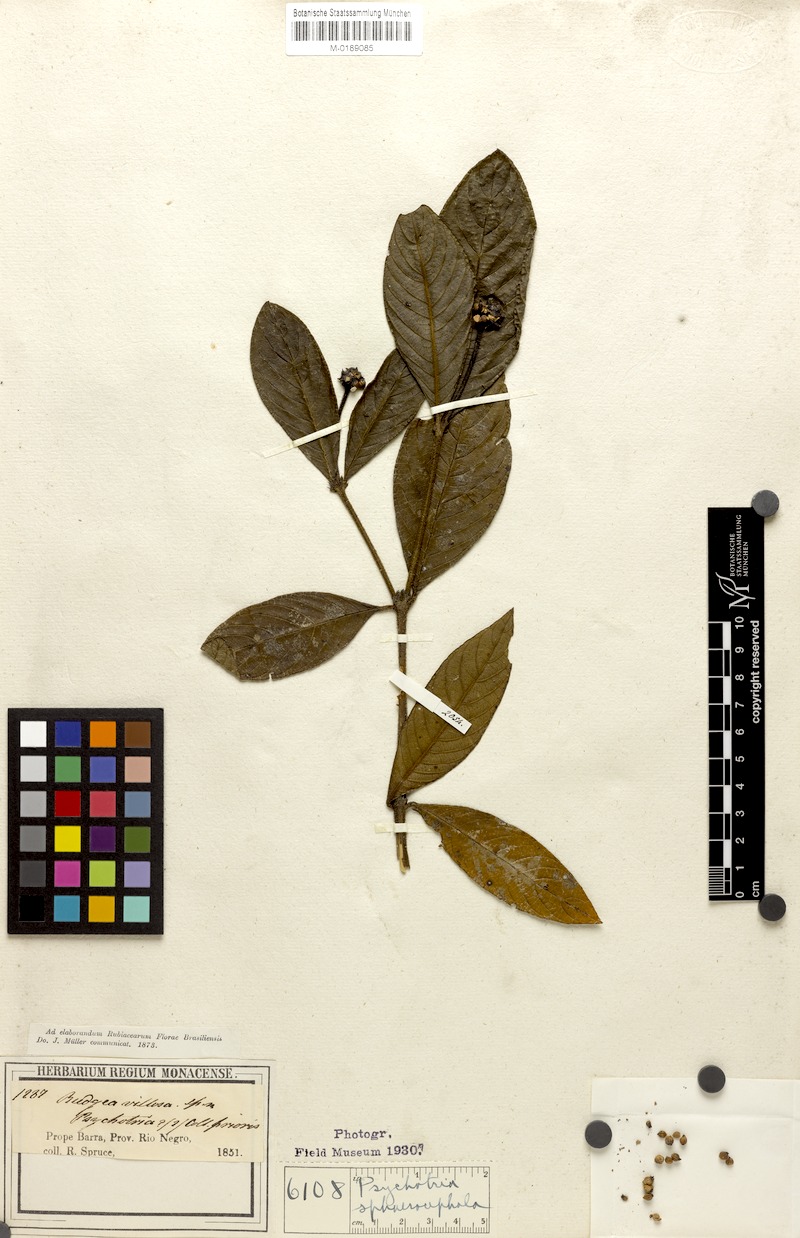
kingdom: Plantae
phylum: Tracheophyta
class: Magnoliopsida
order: Gentianales
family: Rubiaceae
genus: Palicourea
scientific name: Palicourea sphaerocephala
